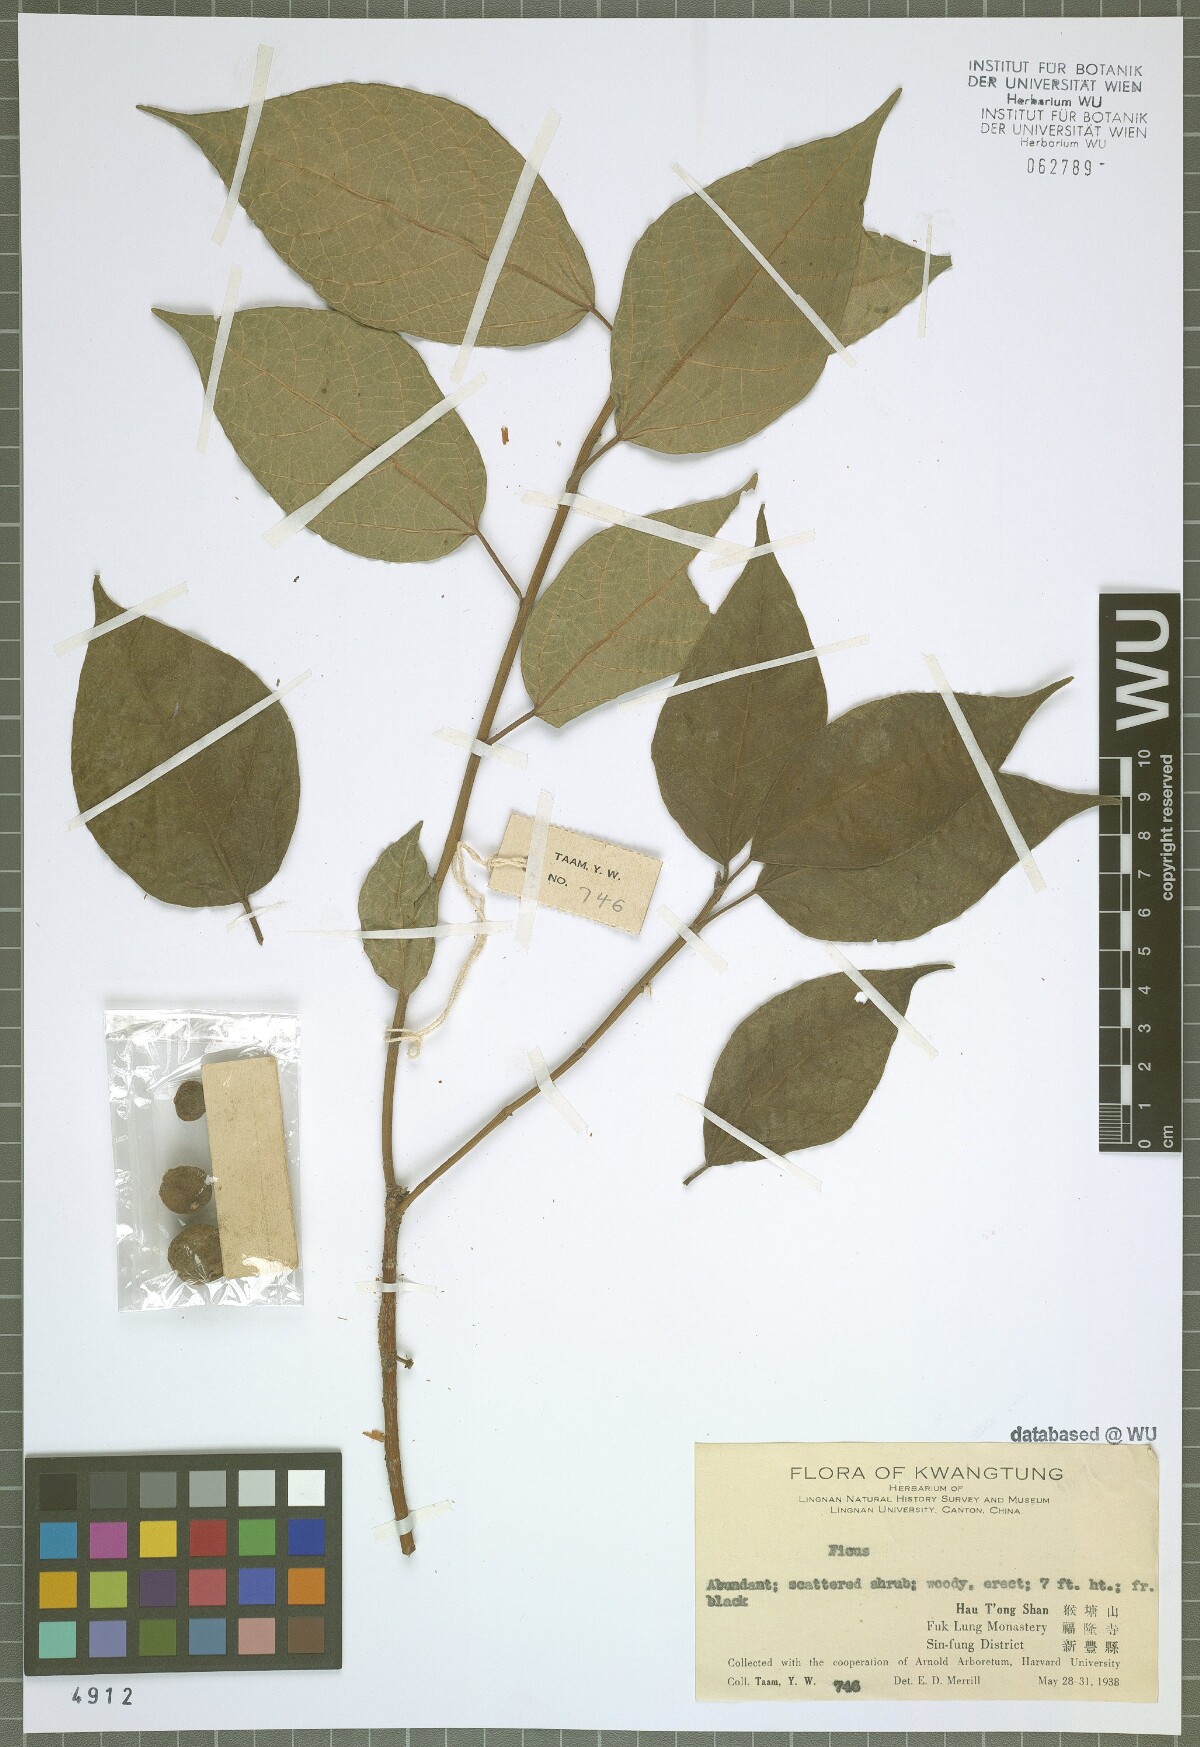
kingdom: Plantae
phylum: Tracheophyta
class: Magnoliopsida
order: Rosales
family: Moraceae
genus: Ficus
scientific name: Ficus
